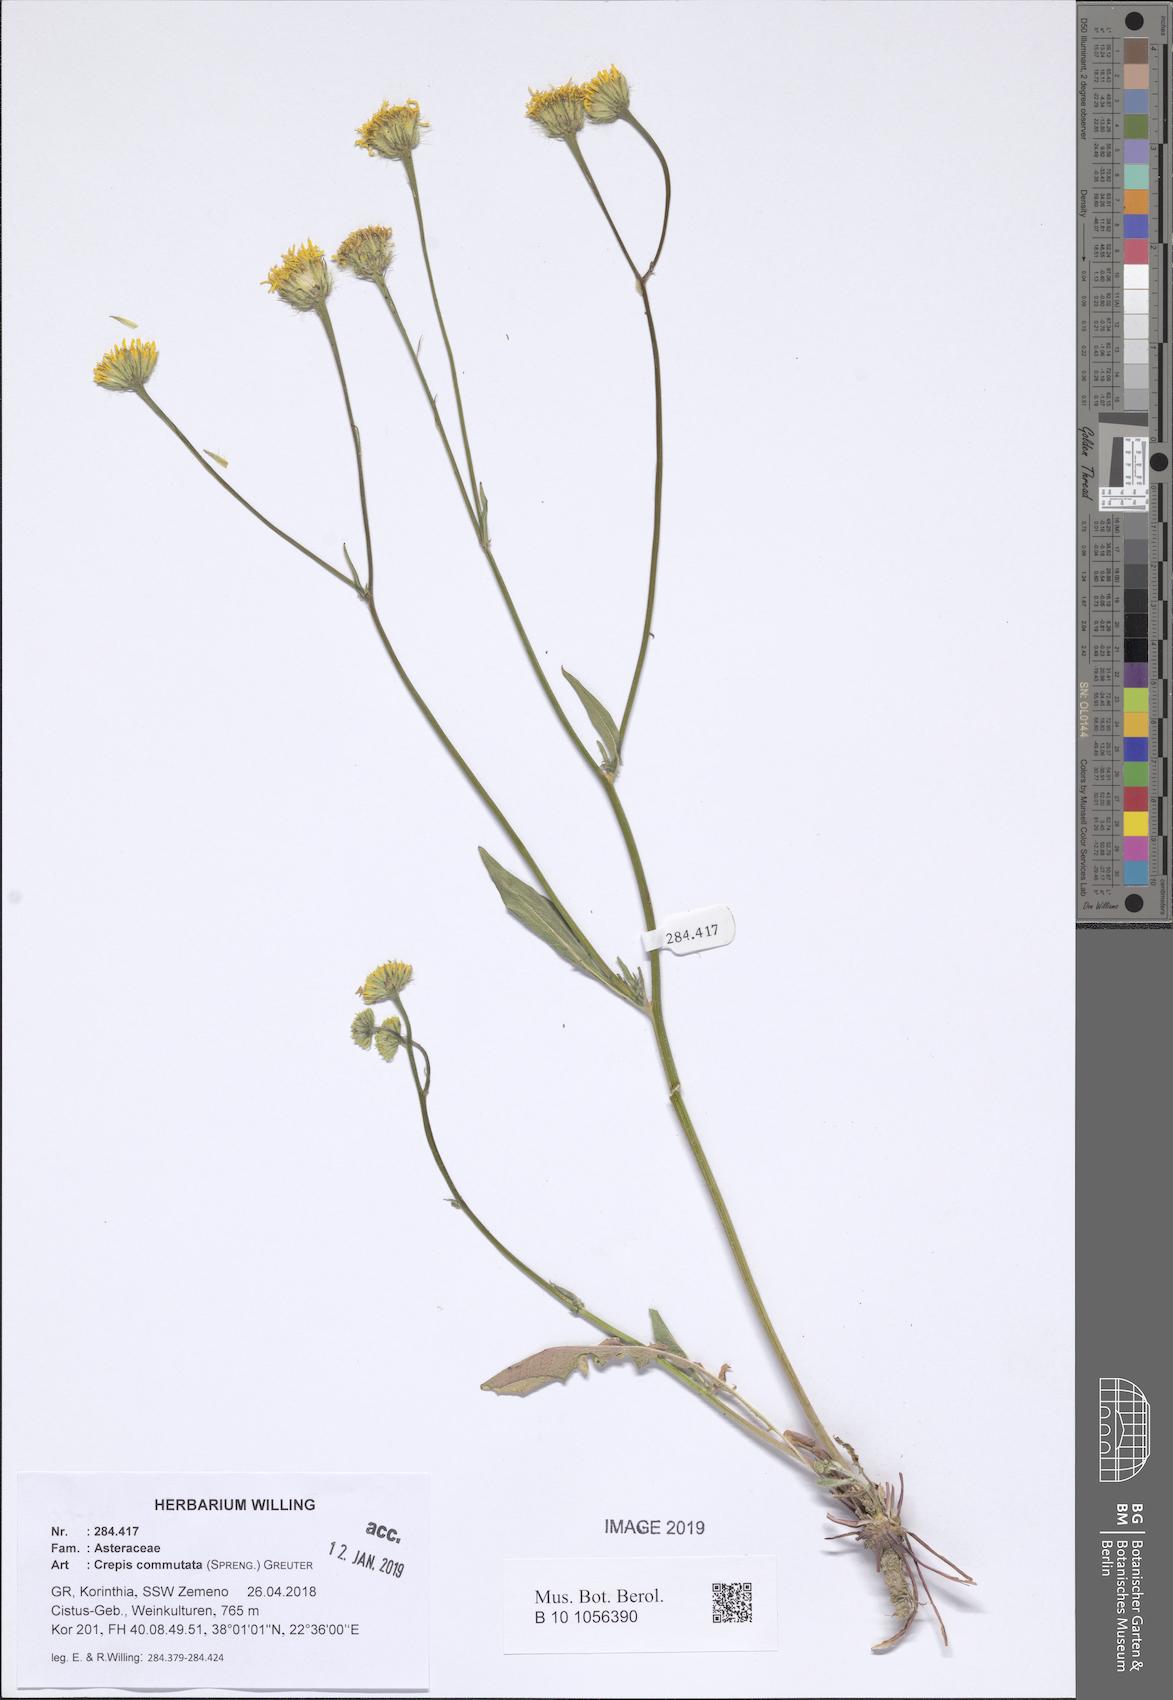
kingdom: Plantae
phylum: Tracheophyta
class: Magnoliopsida
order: Asterales
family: Asteraceae
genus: Crepis
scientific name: Crepis commutata
